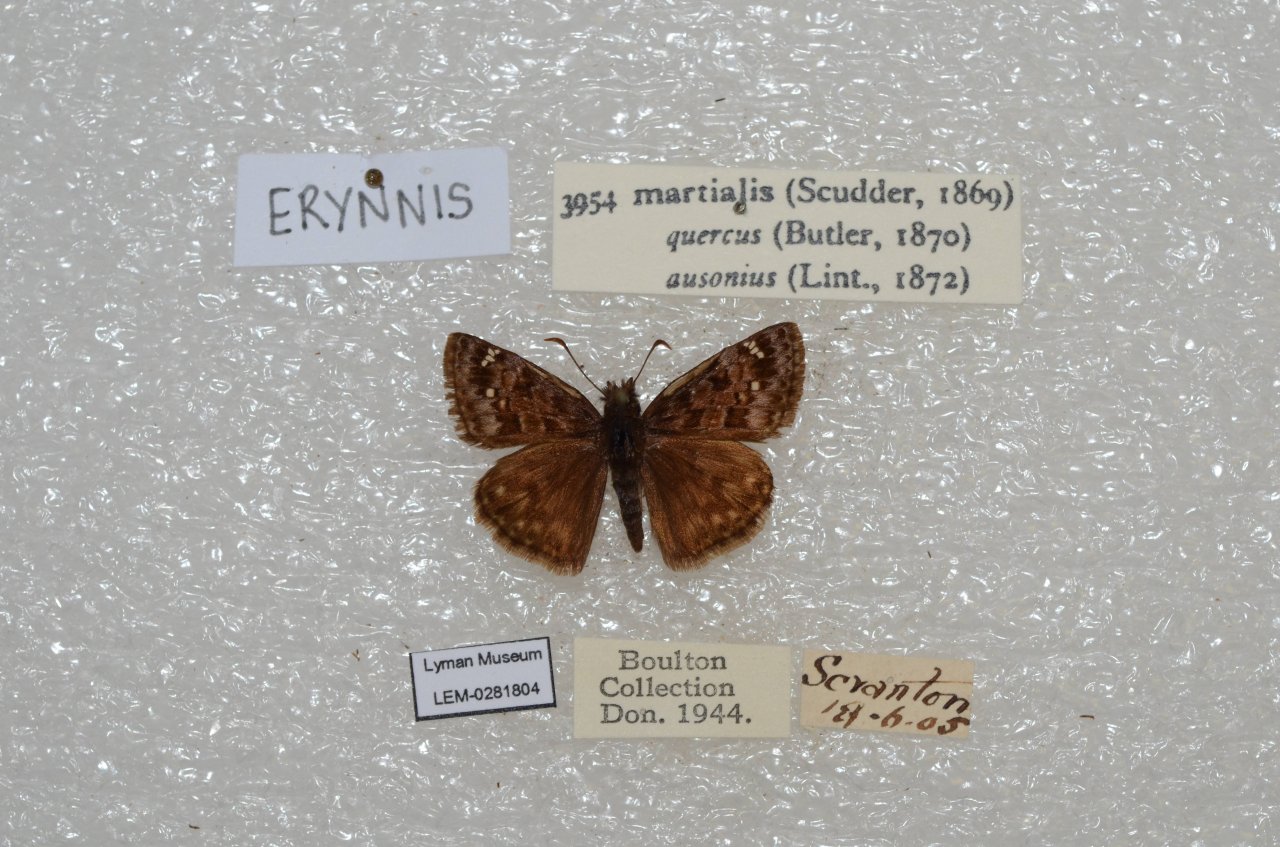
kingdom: Animalia
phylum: Arthropoda
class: Insecta
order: Lepidoptera
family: Hesperiidae
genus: Erynnis
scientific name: Erynnis martialis
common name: Mottled Duskywing
